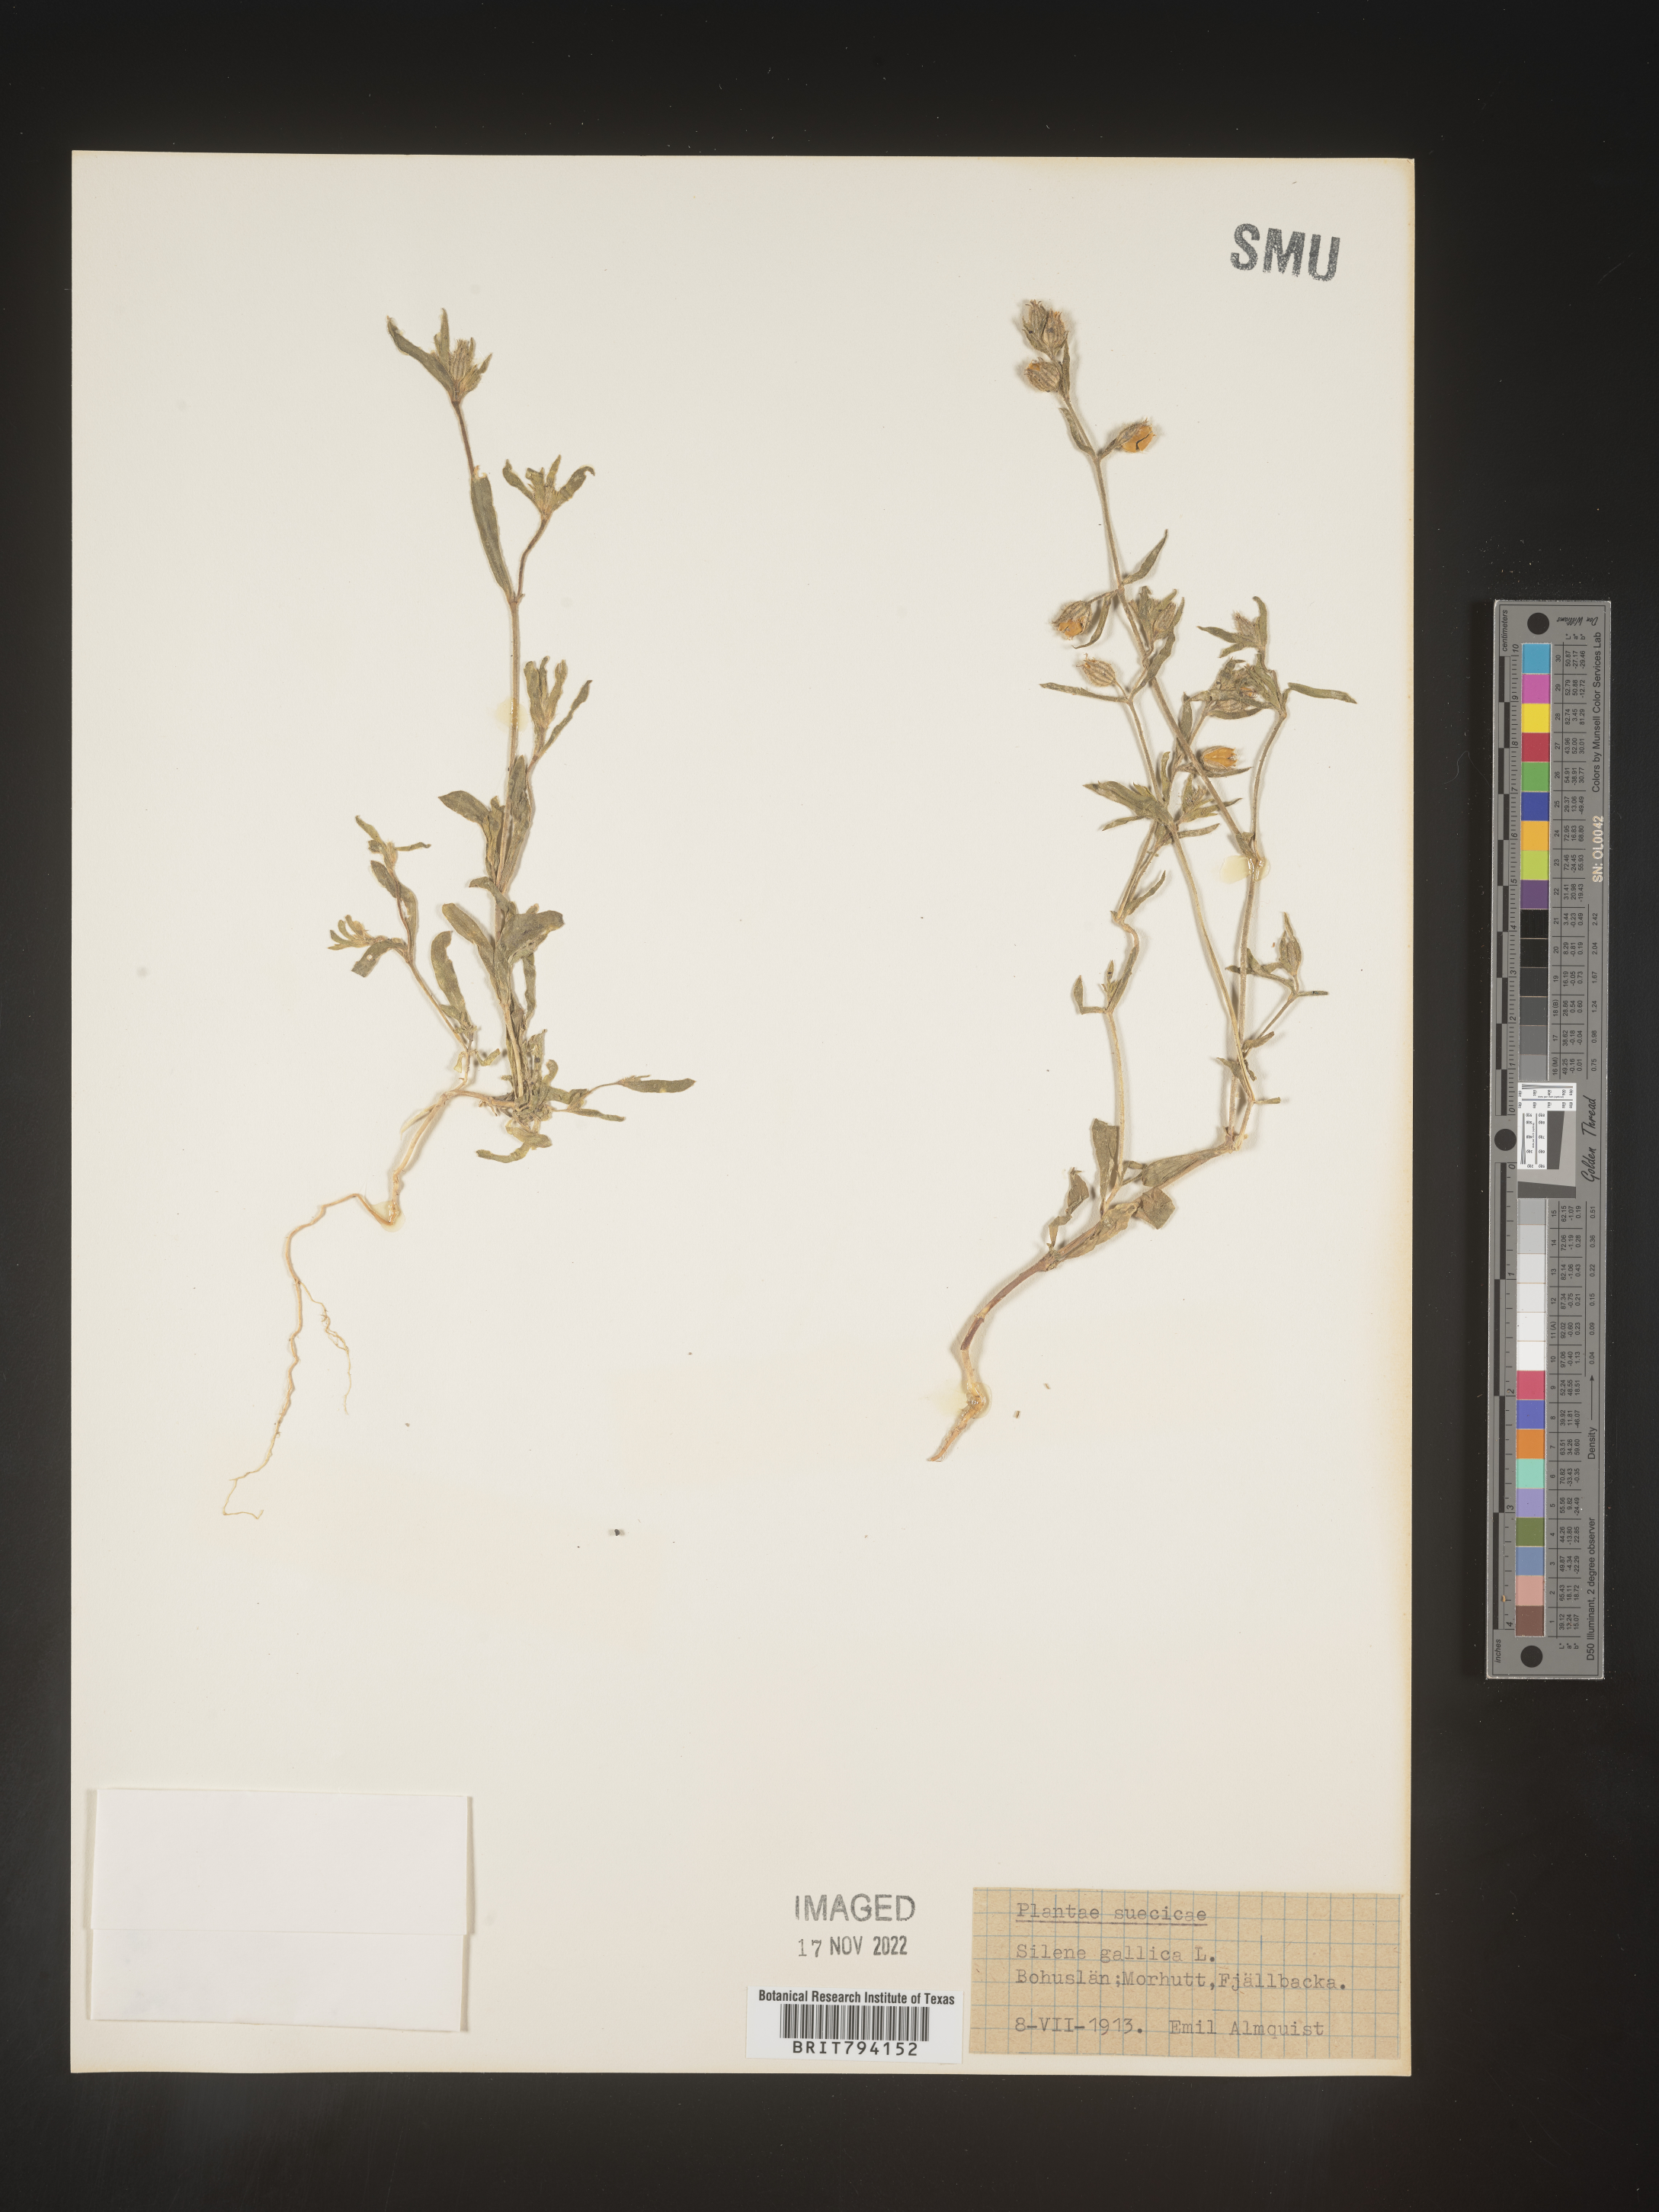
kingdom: Plantae
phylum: Tracheophyta
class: Magnoliopsida
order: Caryophyllales
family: Caryophyllaceae
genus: Silene
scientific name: Silene gallica
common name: Small-flowered catchfly
